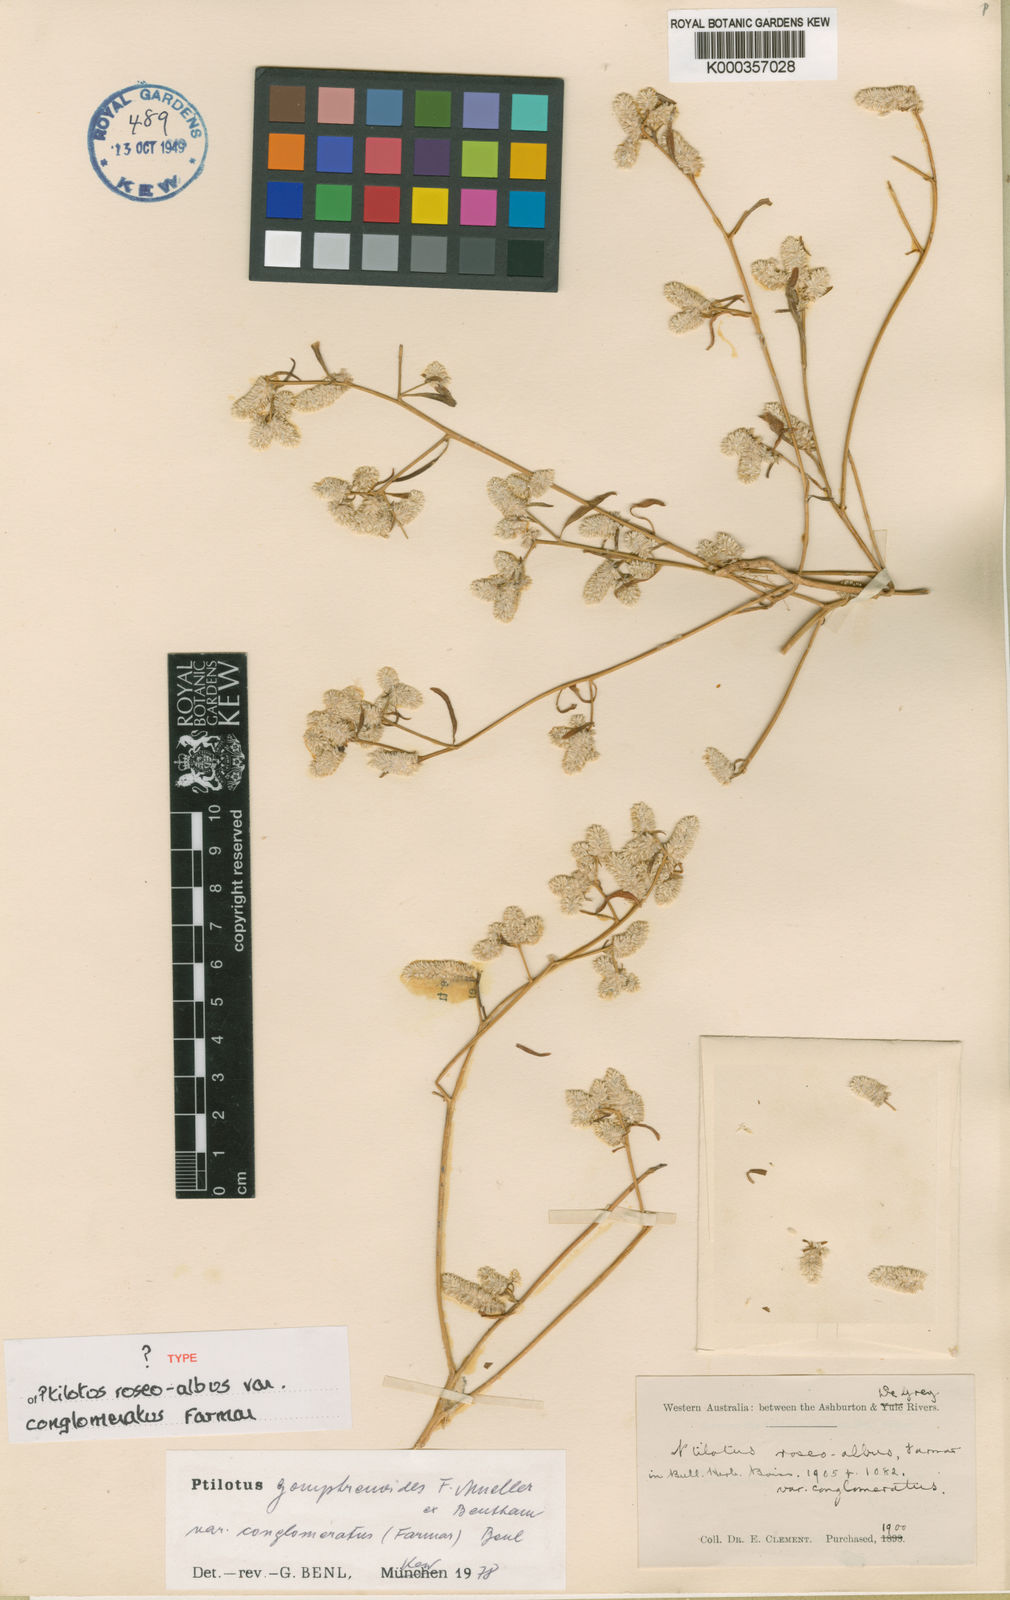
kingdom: Plantae
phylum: Tracheophyta
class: Magnoliopsida
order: Caryophyllales
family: Amaranthaceae
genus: Ptilotus
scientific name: Ptilotus
